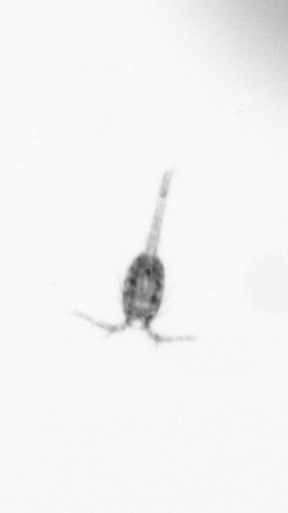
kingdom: Animalia
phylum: Arthropoda
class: Copepoda
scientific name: Copepoda
